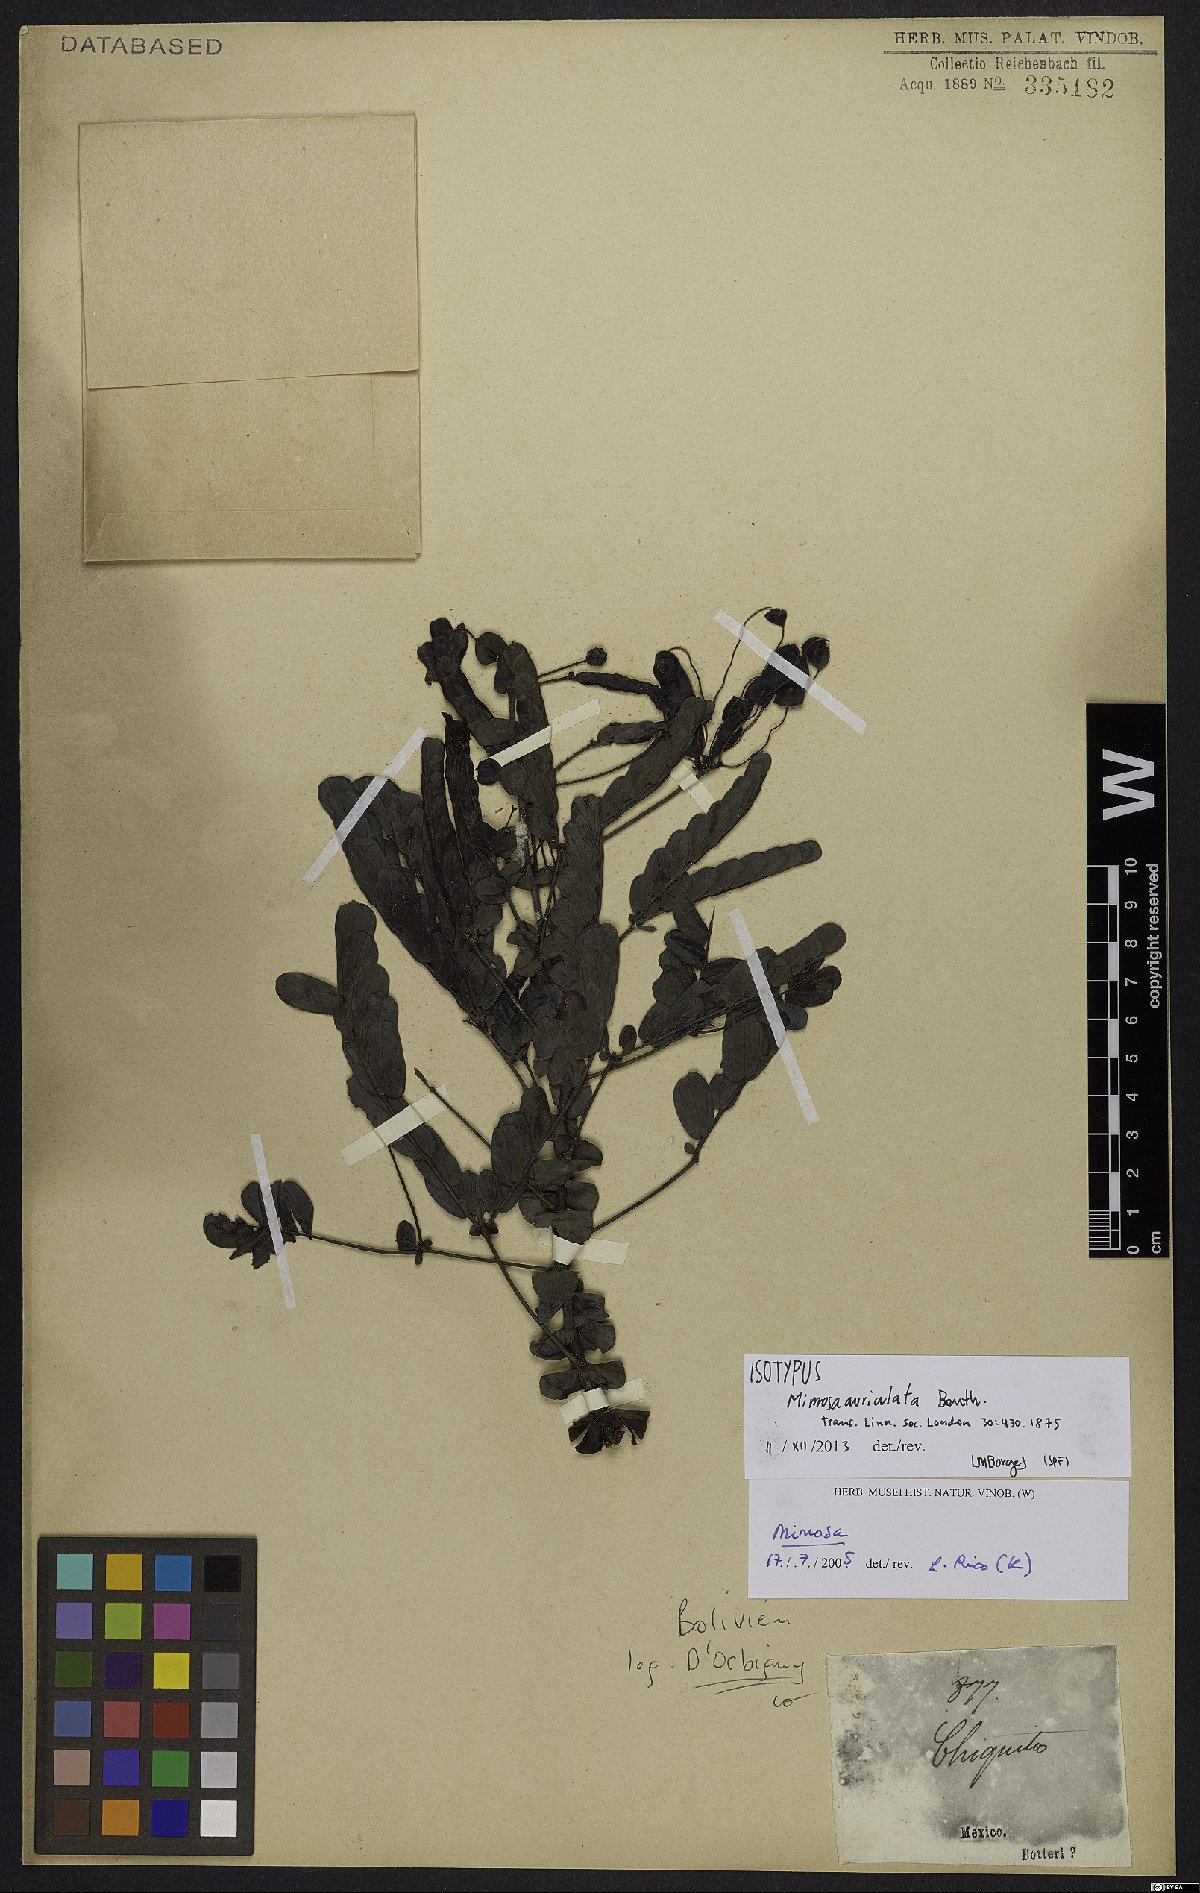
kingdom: Plantae
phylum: Tracheophyta
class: Magnoliopsida
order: Fabales
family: Fabaceae
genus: Mimosa
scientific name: Mimosa auriculata
